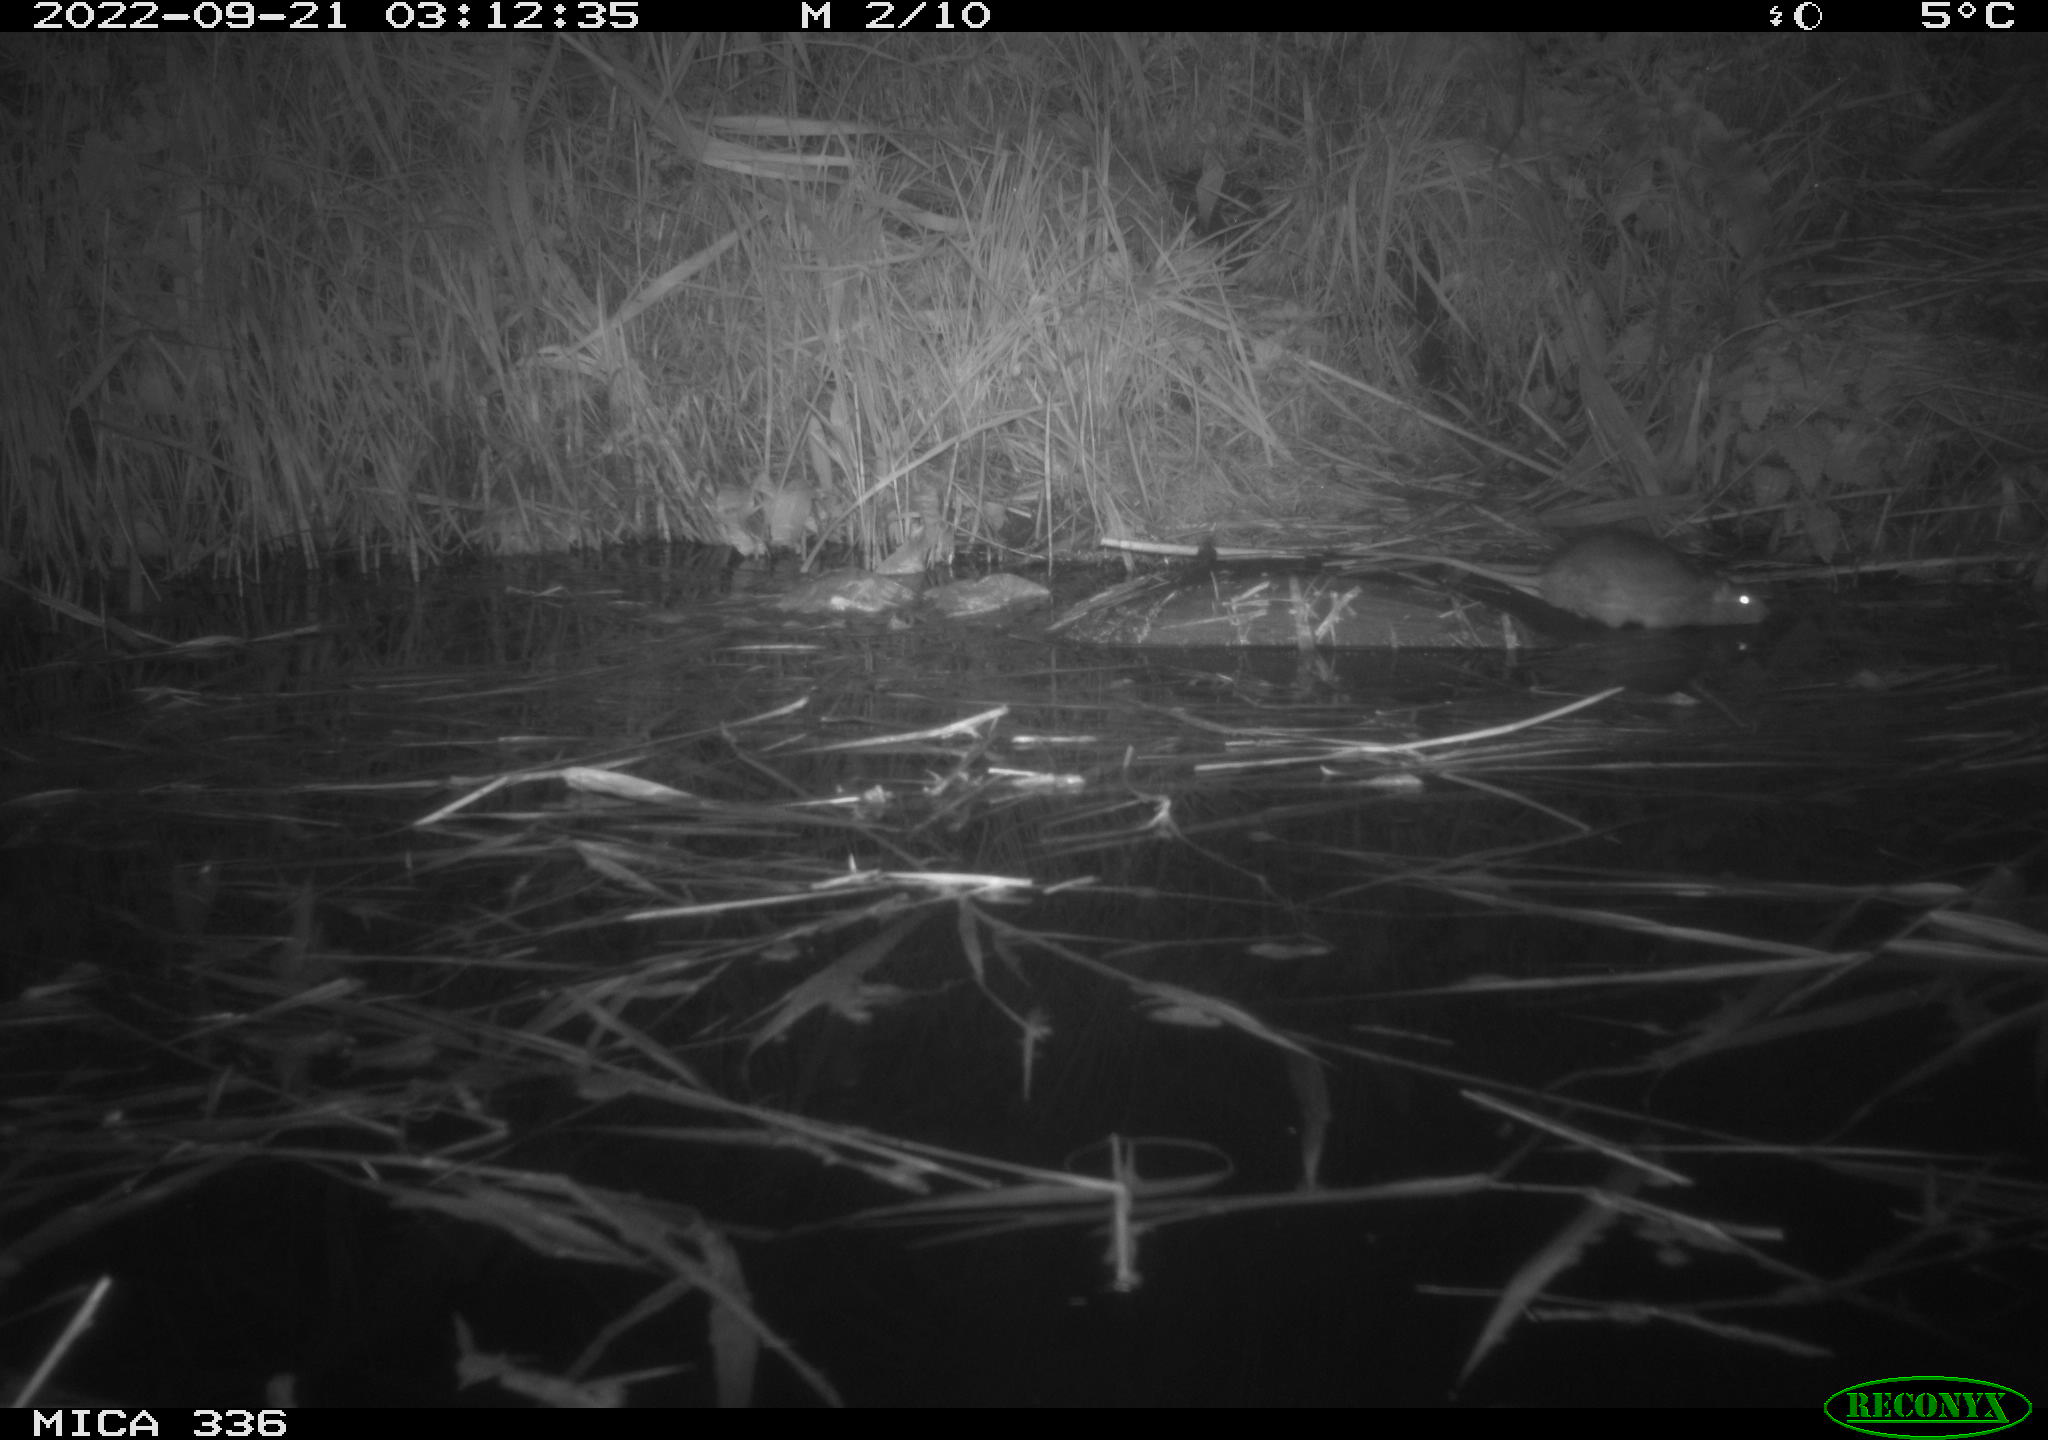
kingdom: Animalia
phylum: Chordata
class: Mammalia
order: Rodentia
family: Muridae
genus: Rattus
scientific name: Rattus norvegicus
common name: Brown rat
